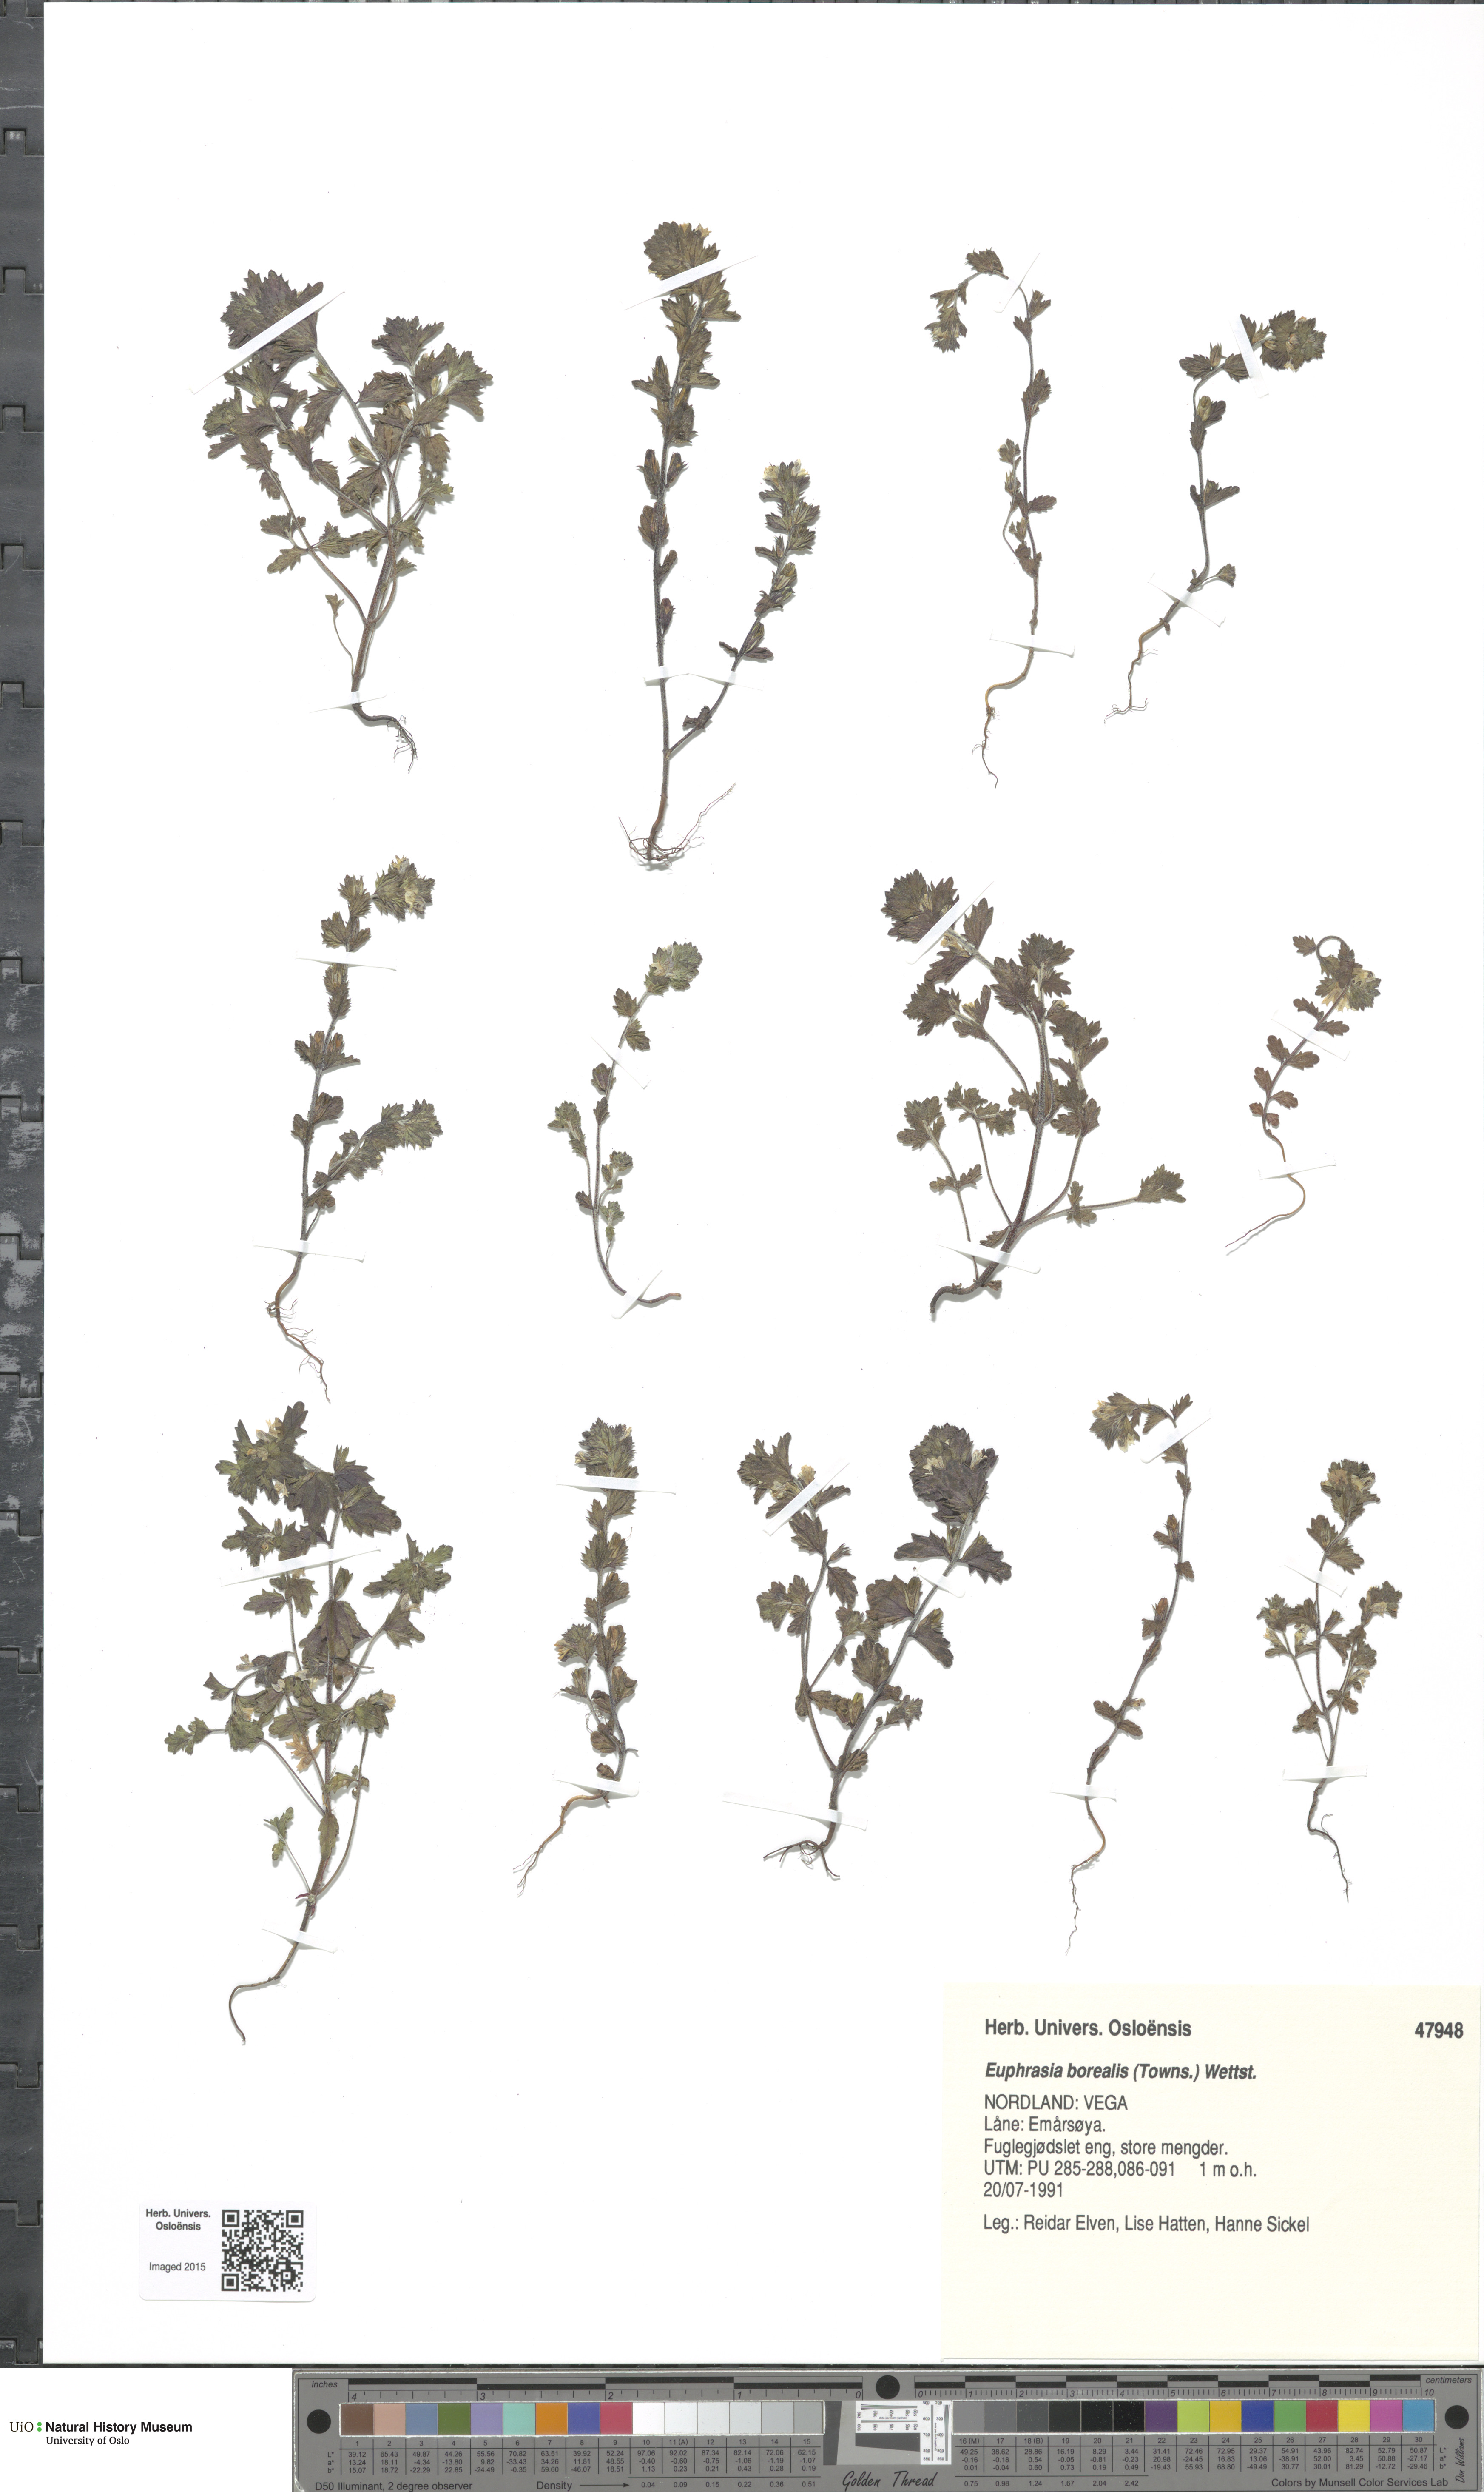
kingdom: Plantae
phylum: Tracheophyta
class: Magnoliopsida
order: Lamiales
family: Orobanchaceae
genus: Euphrasia
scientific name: Euphrasia arctica
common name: An eyebright
